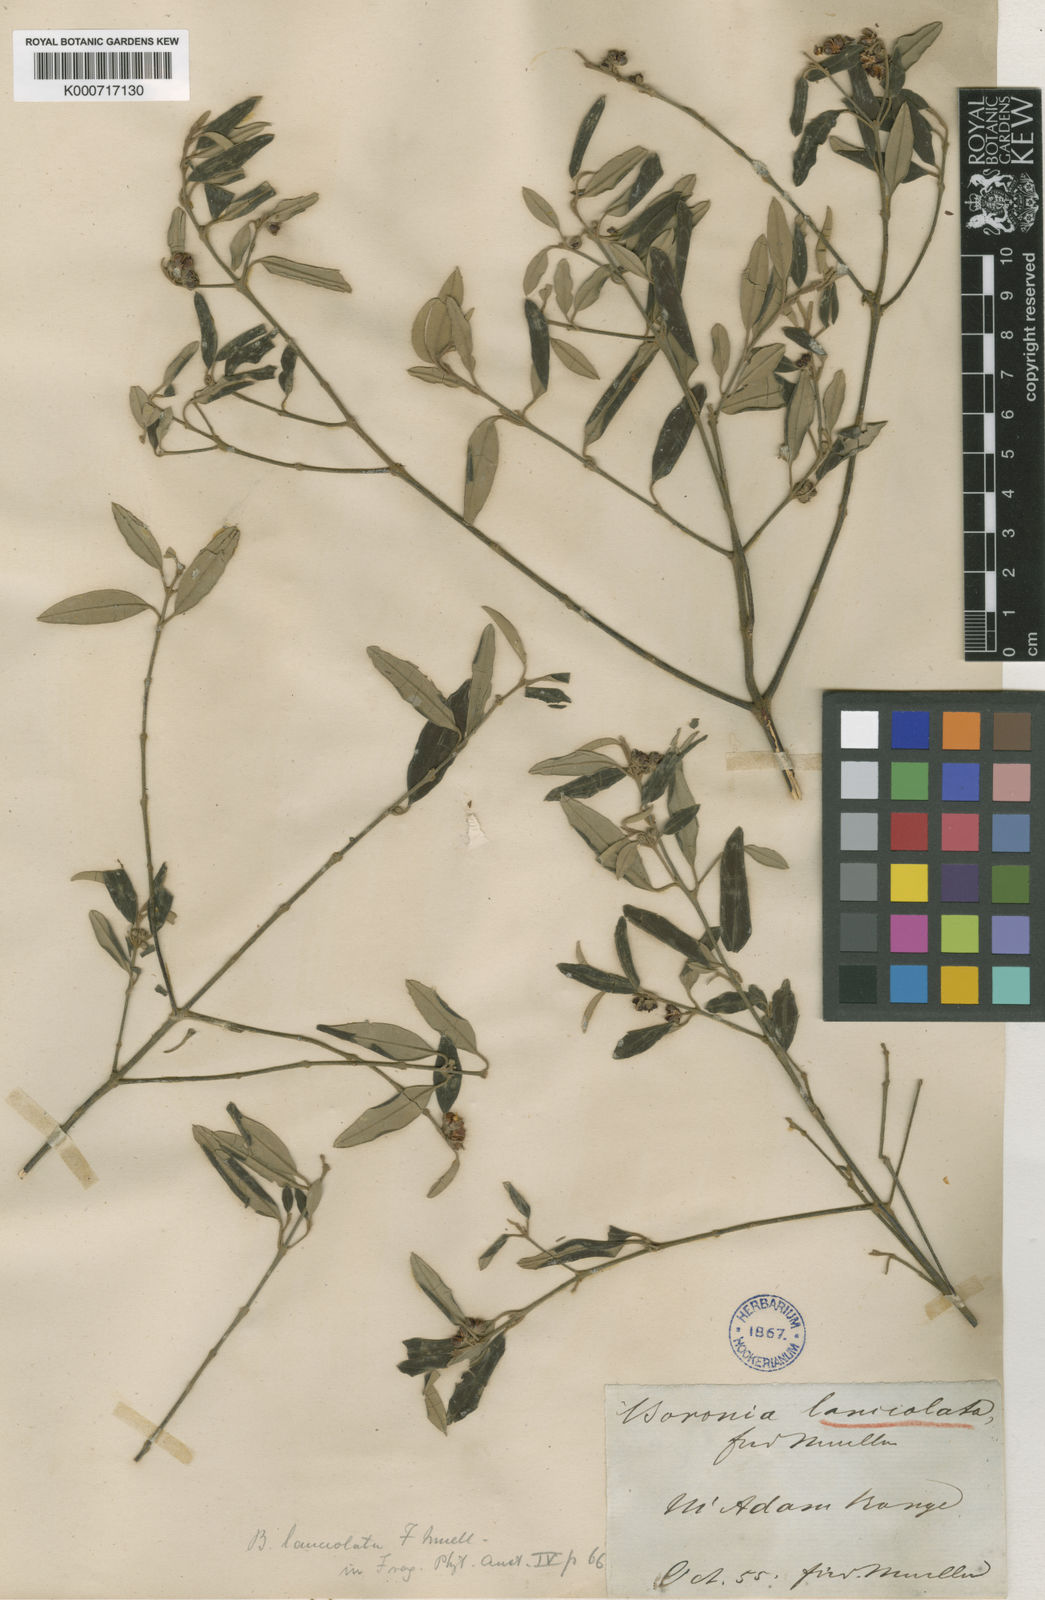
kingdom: Plantae
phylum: Tracheophyta
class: Magnoliopsida
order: Sapindales
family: Rutaceae
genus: Boronia
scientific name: Boronia lanceolata
